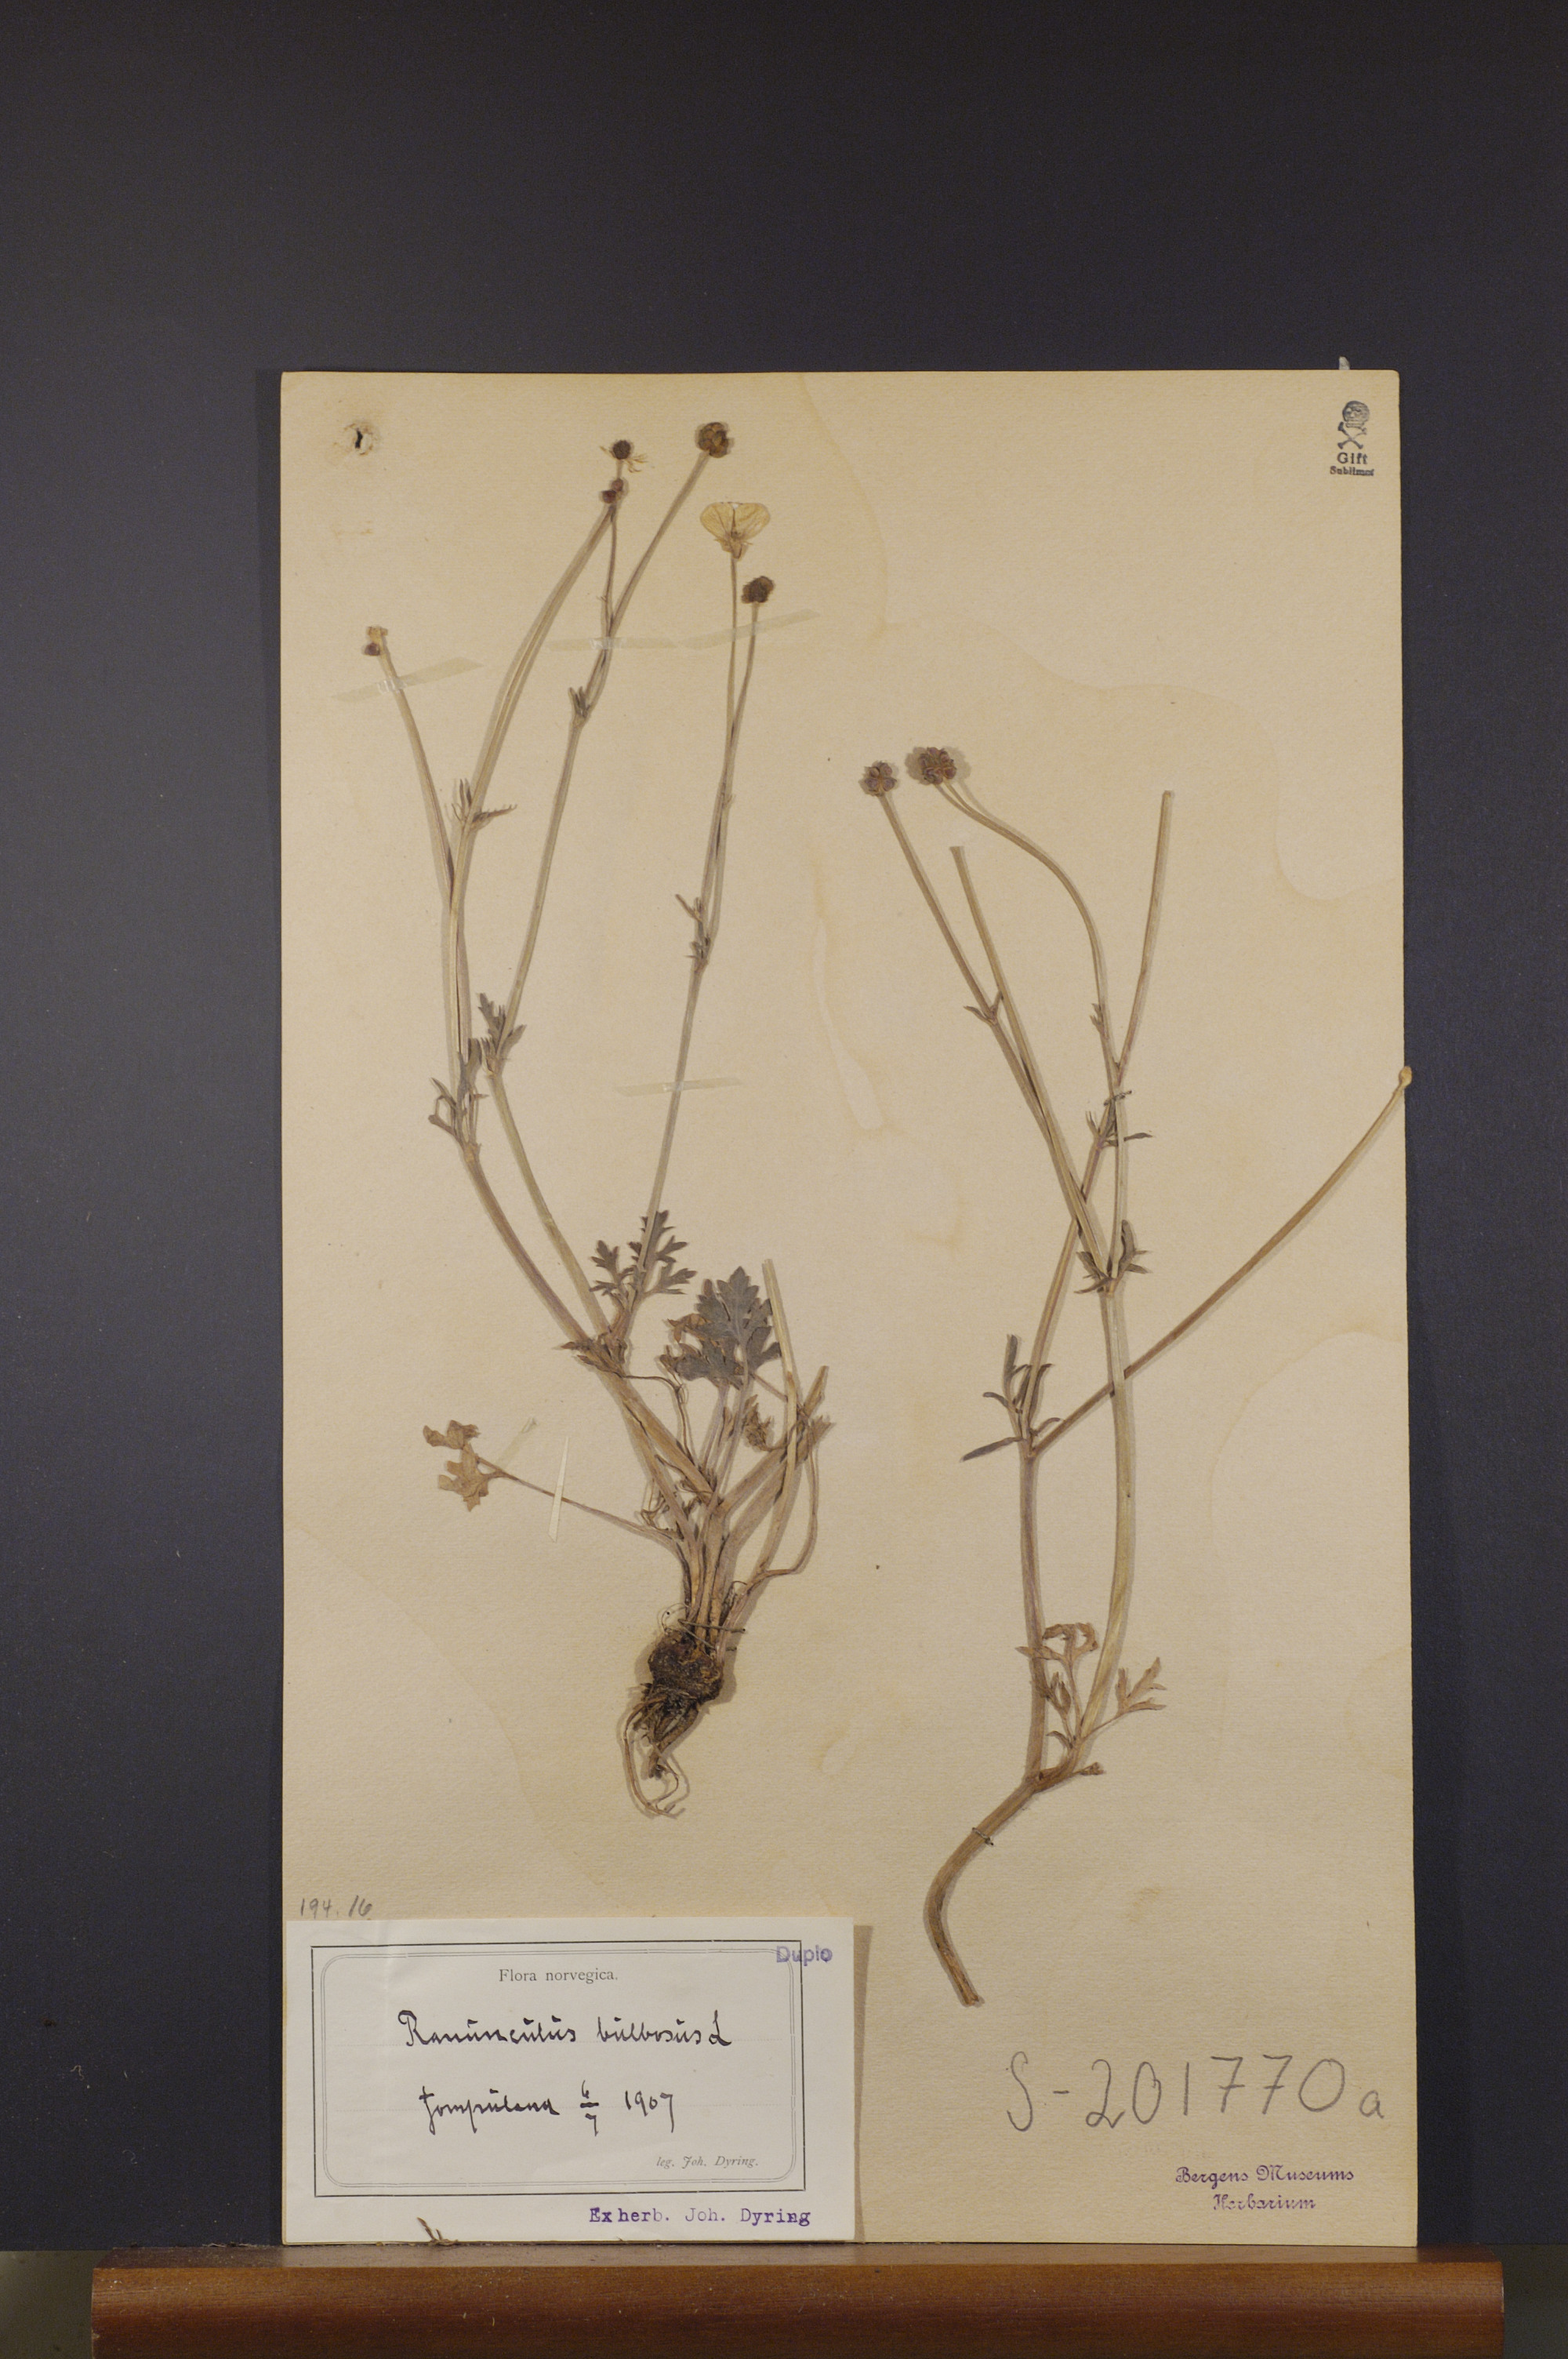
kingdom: Plantae
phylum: Tracheophyta
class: Magnoliopsida
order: Ranunculales
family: Ranunculaceae
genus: Ranunculus
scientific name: Ranunculus bulbosus
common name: Bulbous buttercup
